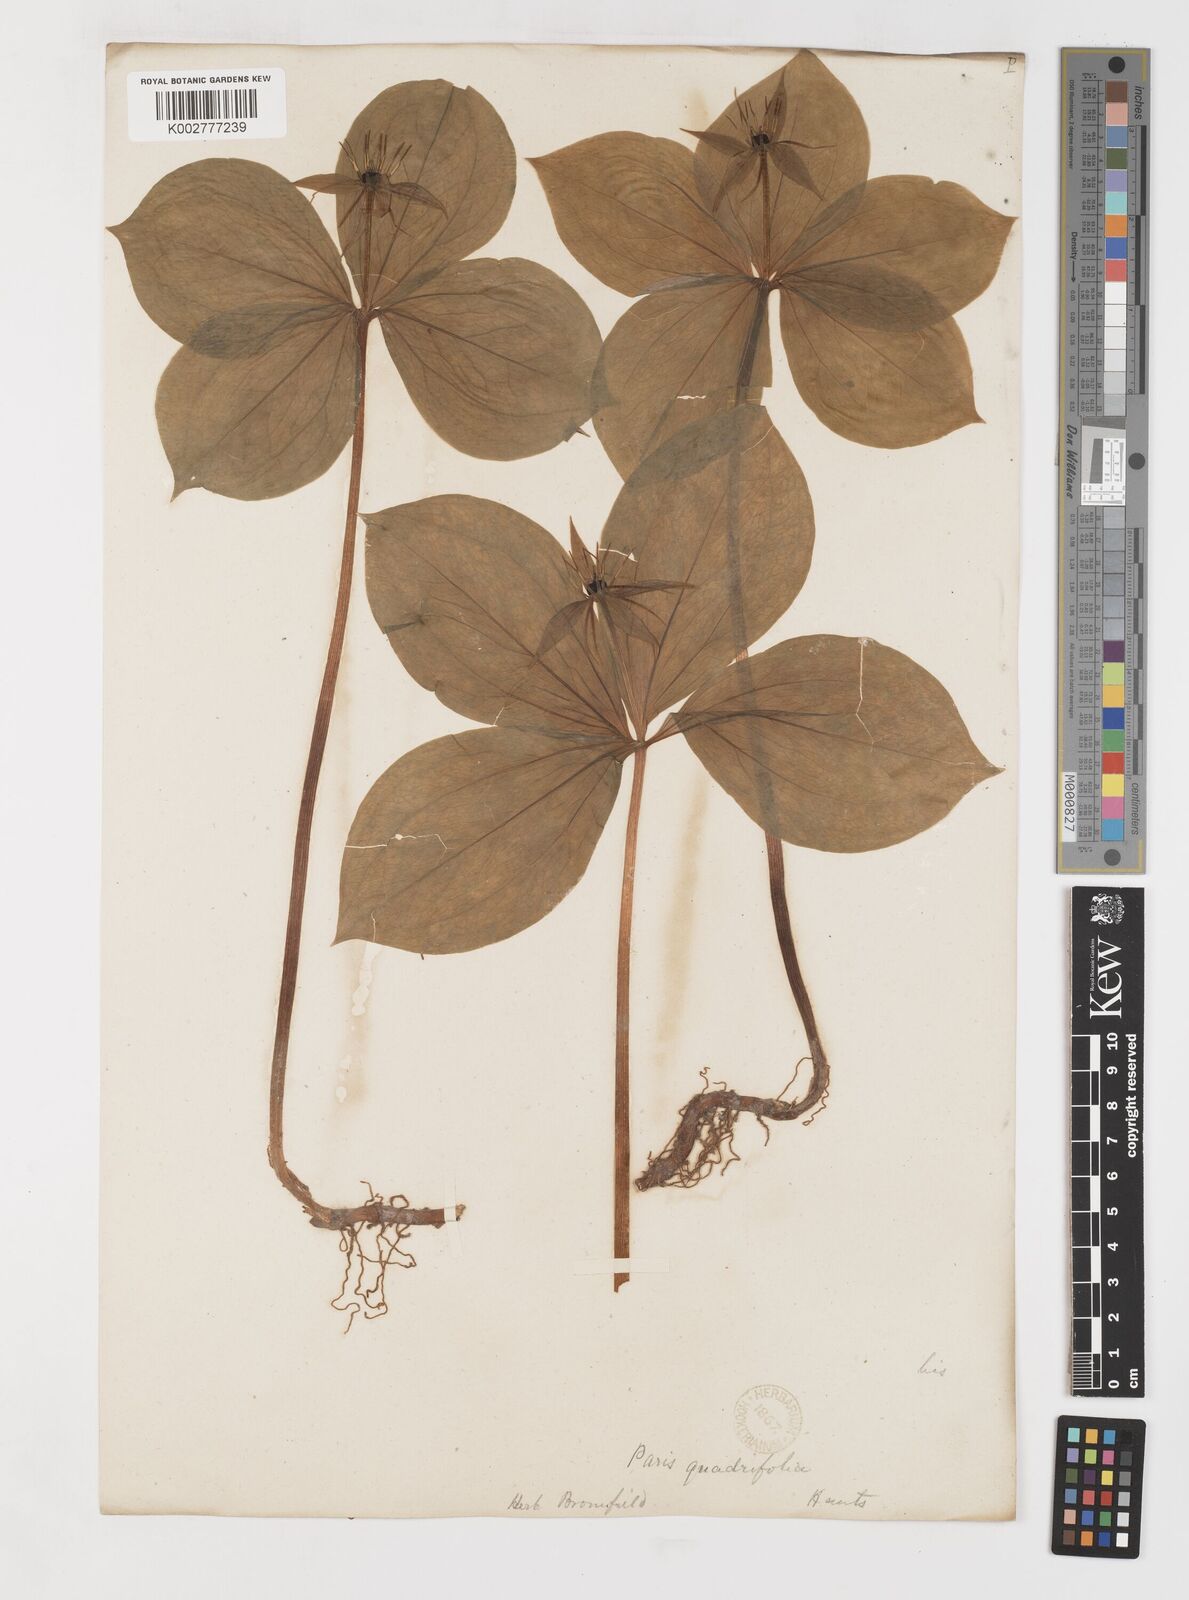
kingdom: Plantae
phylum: Tracheophyta
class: Liliopsida
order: Liliales
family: Melanthiaceae
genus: Paris
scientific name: Paris
